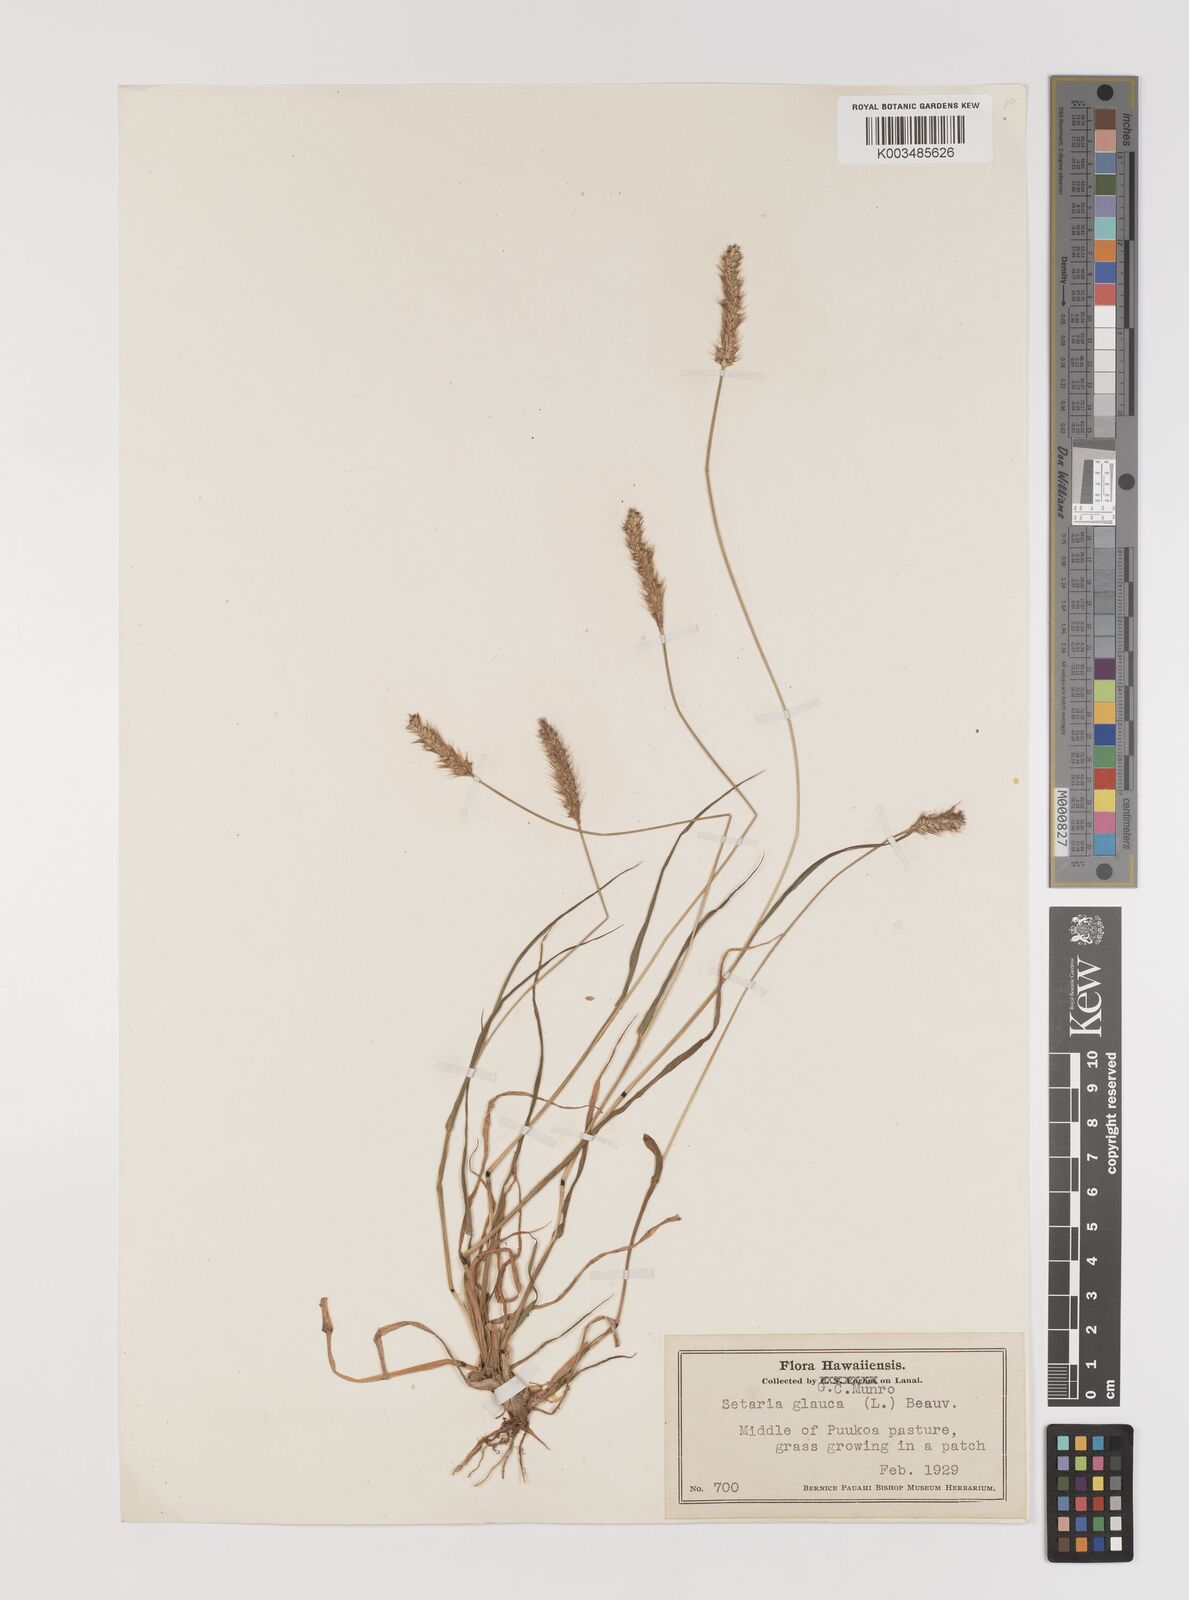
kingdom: Plantae
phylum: Tracheophyta
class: Liliopsida
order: Poales
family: Poaceae
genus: Setaria
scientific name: Setaria pumila
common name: Yellow bristle-grass
